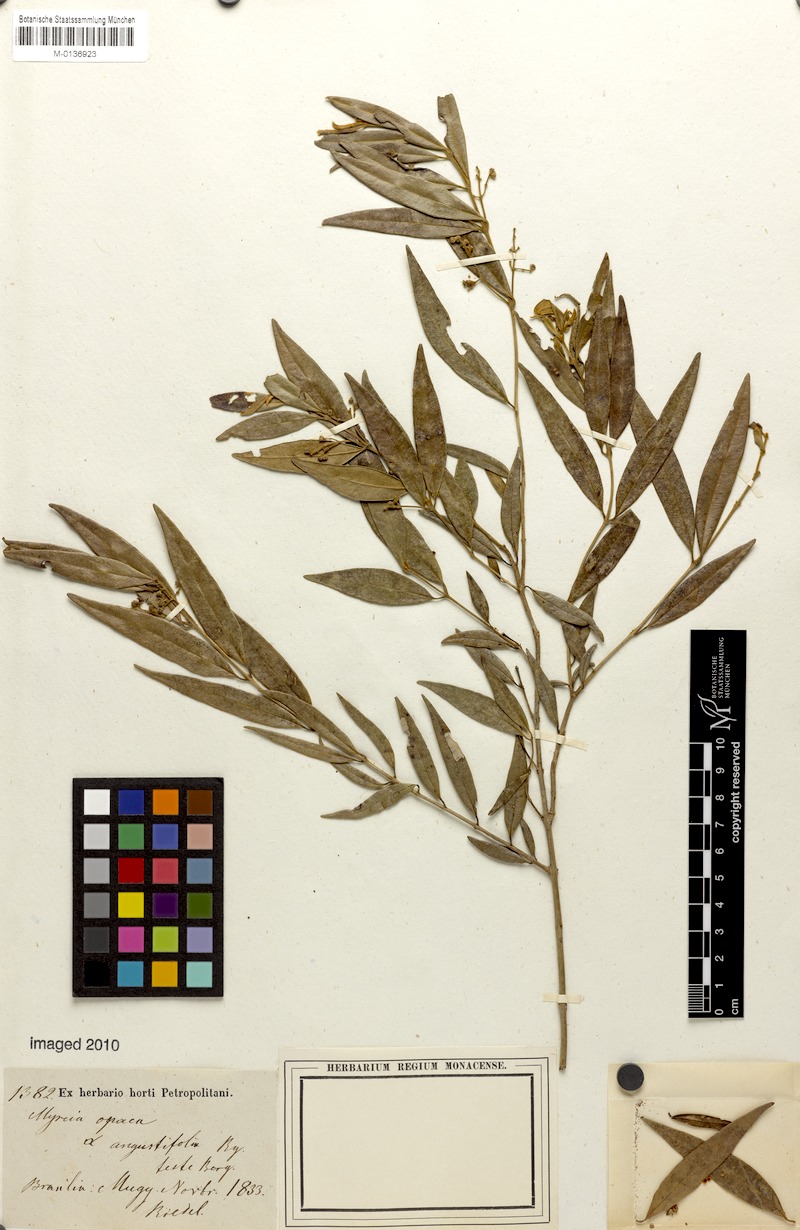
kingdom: Plantae
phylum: Tracheophyta
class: Magnoliopsida
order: Myrtales
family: Myrtaceae
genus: Myrcia
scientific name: Myrcia splendens
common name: Surinam cherry
